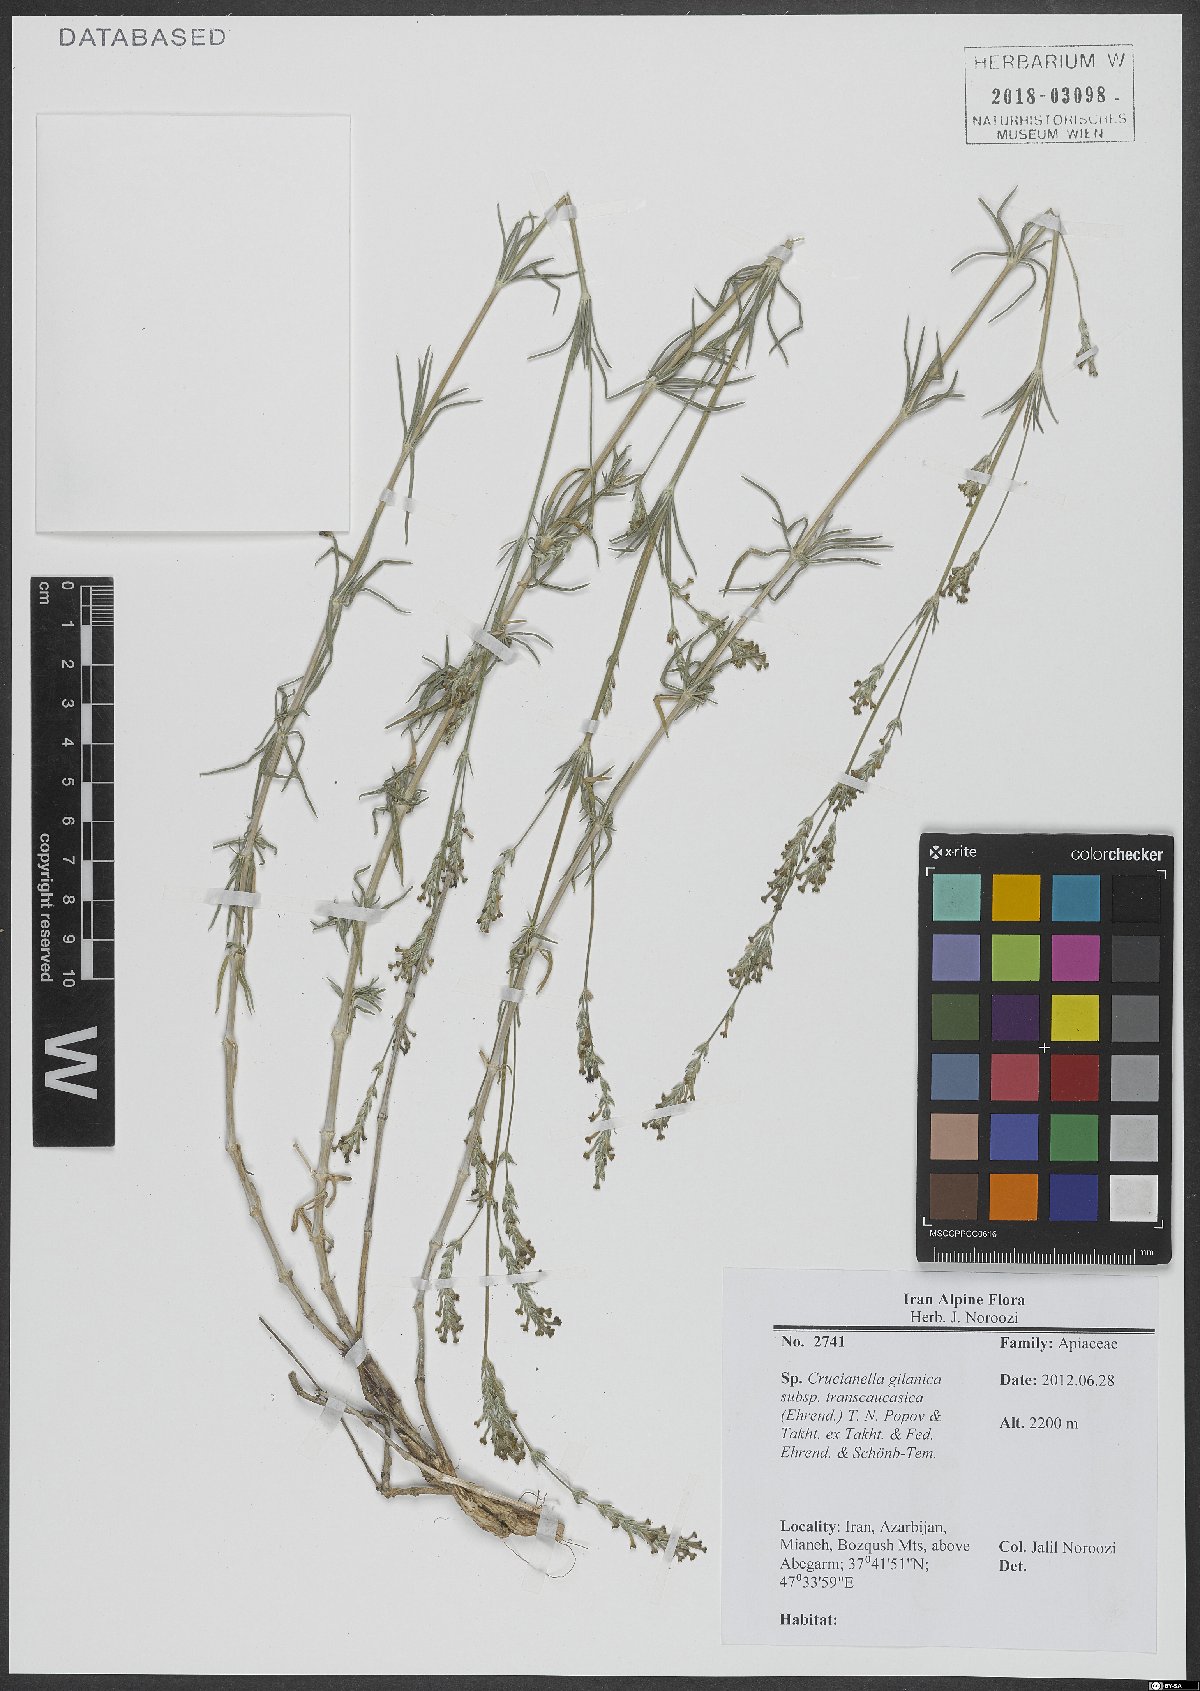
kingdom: Plantae
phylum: Tracheophyta
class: Magnoliopsida
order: Gentianales
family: Rubiaceae
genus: Crucianella
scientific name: Crucianella gilanica
